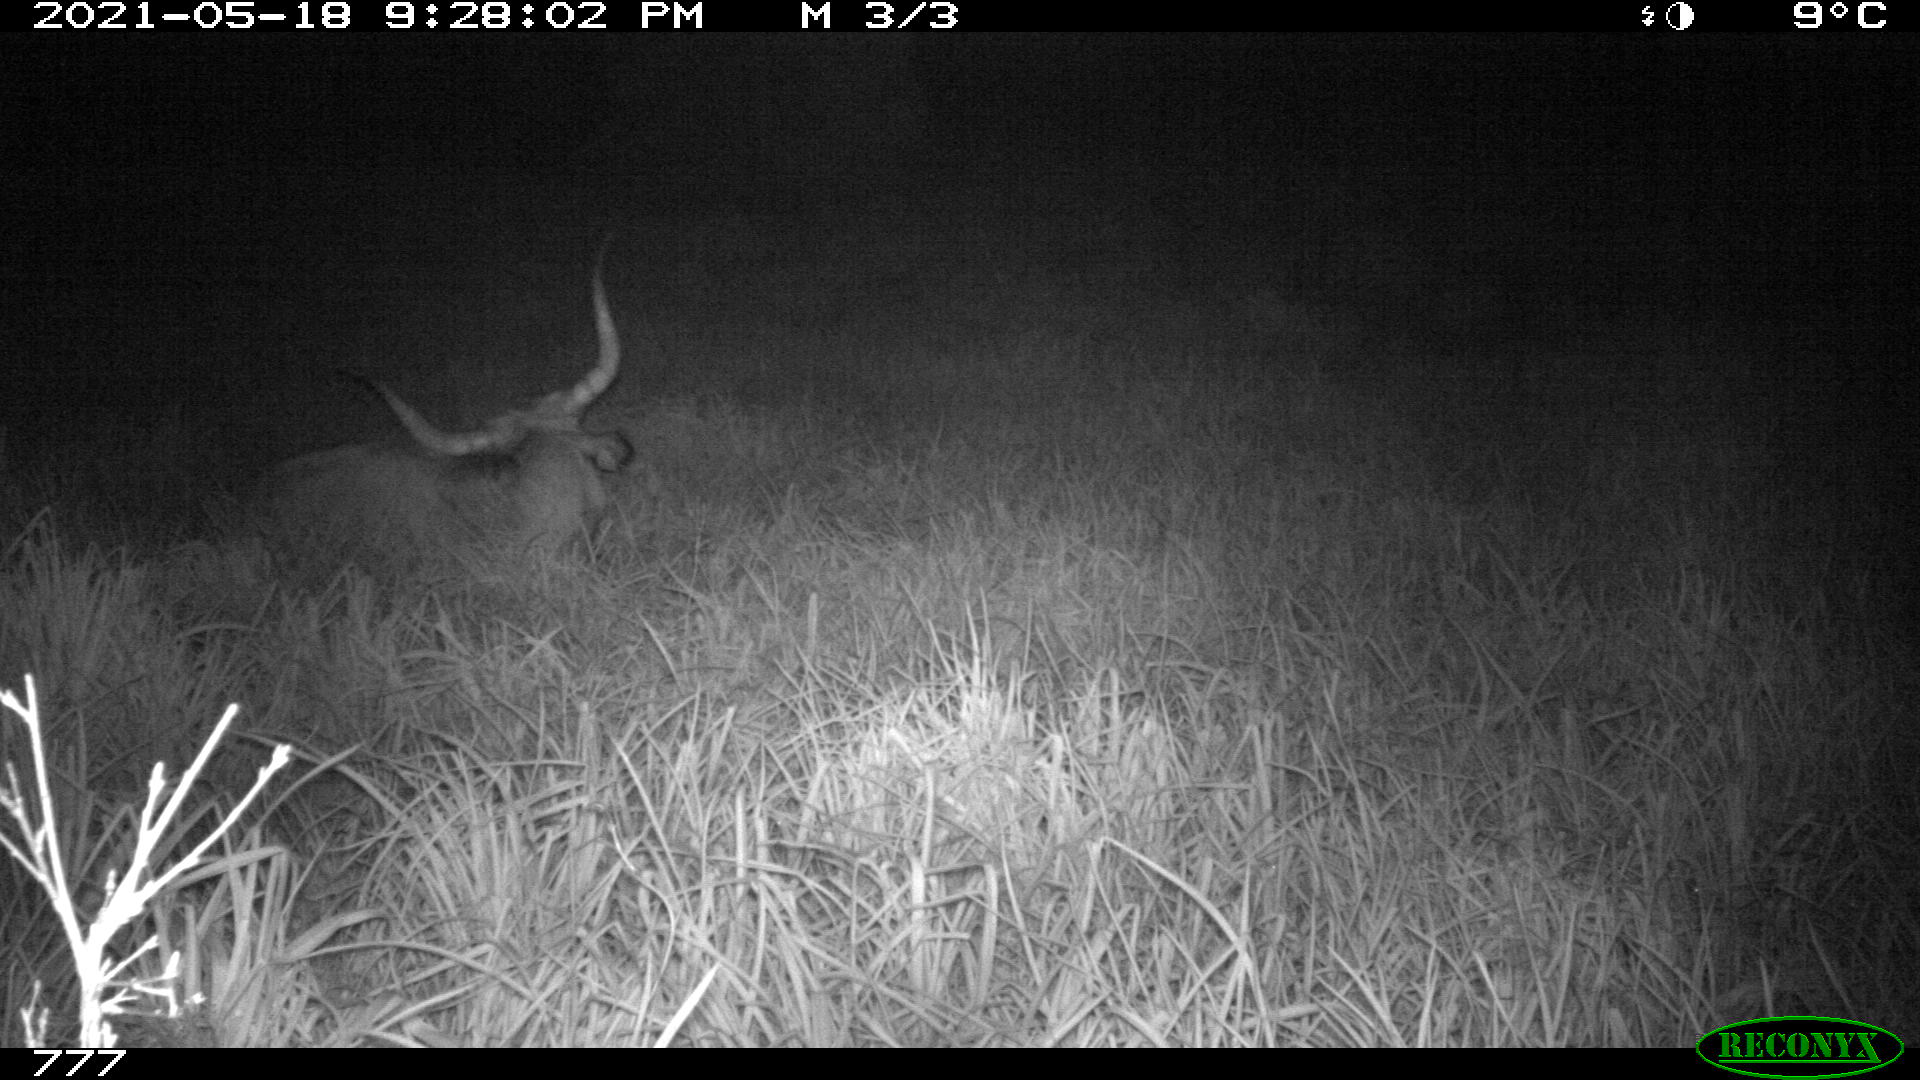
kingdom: Animalia
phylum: Chordata
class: Mammalia
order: Artiodactyla
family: Bovidae
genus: Bos
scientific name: Bos taurus
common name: Domesticated cattle
